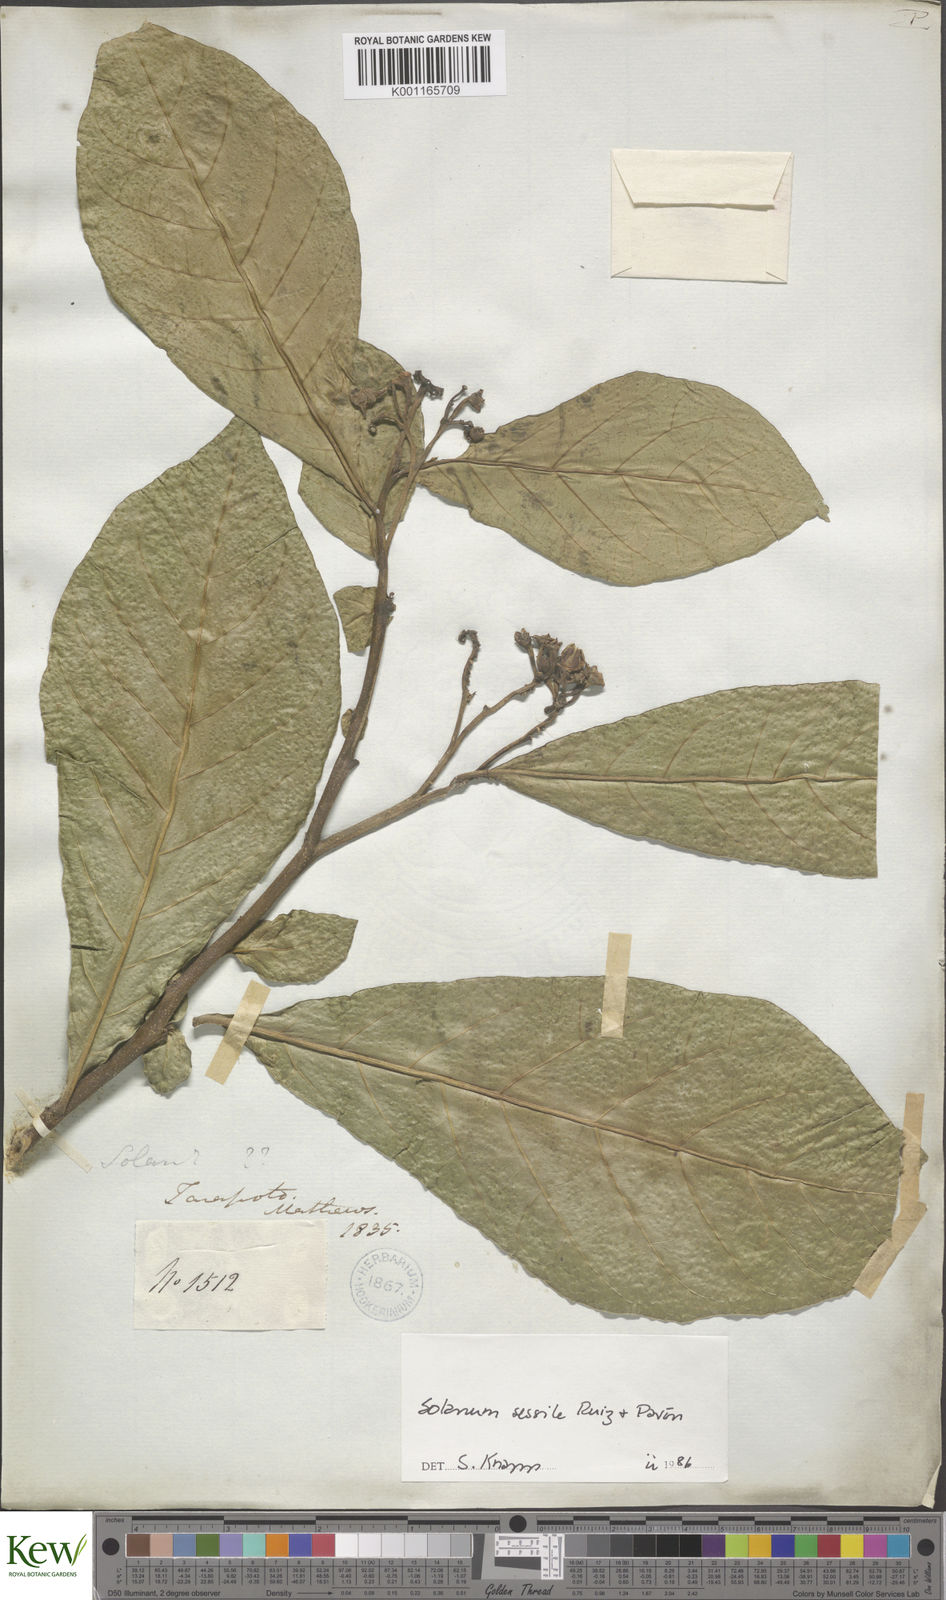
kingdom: Plantae
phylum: Tracheophyta
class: Magnoliopsida
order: Solanales
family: Solanaceae
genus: Solanum
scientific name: Solanum sessile
